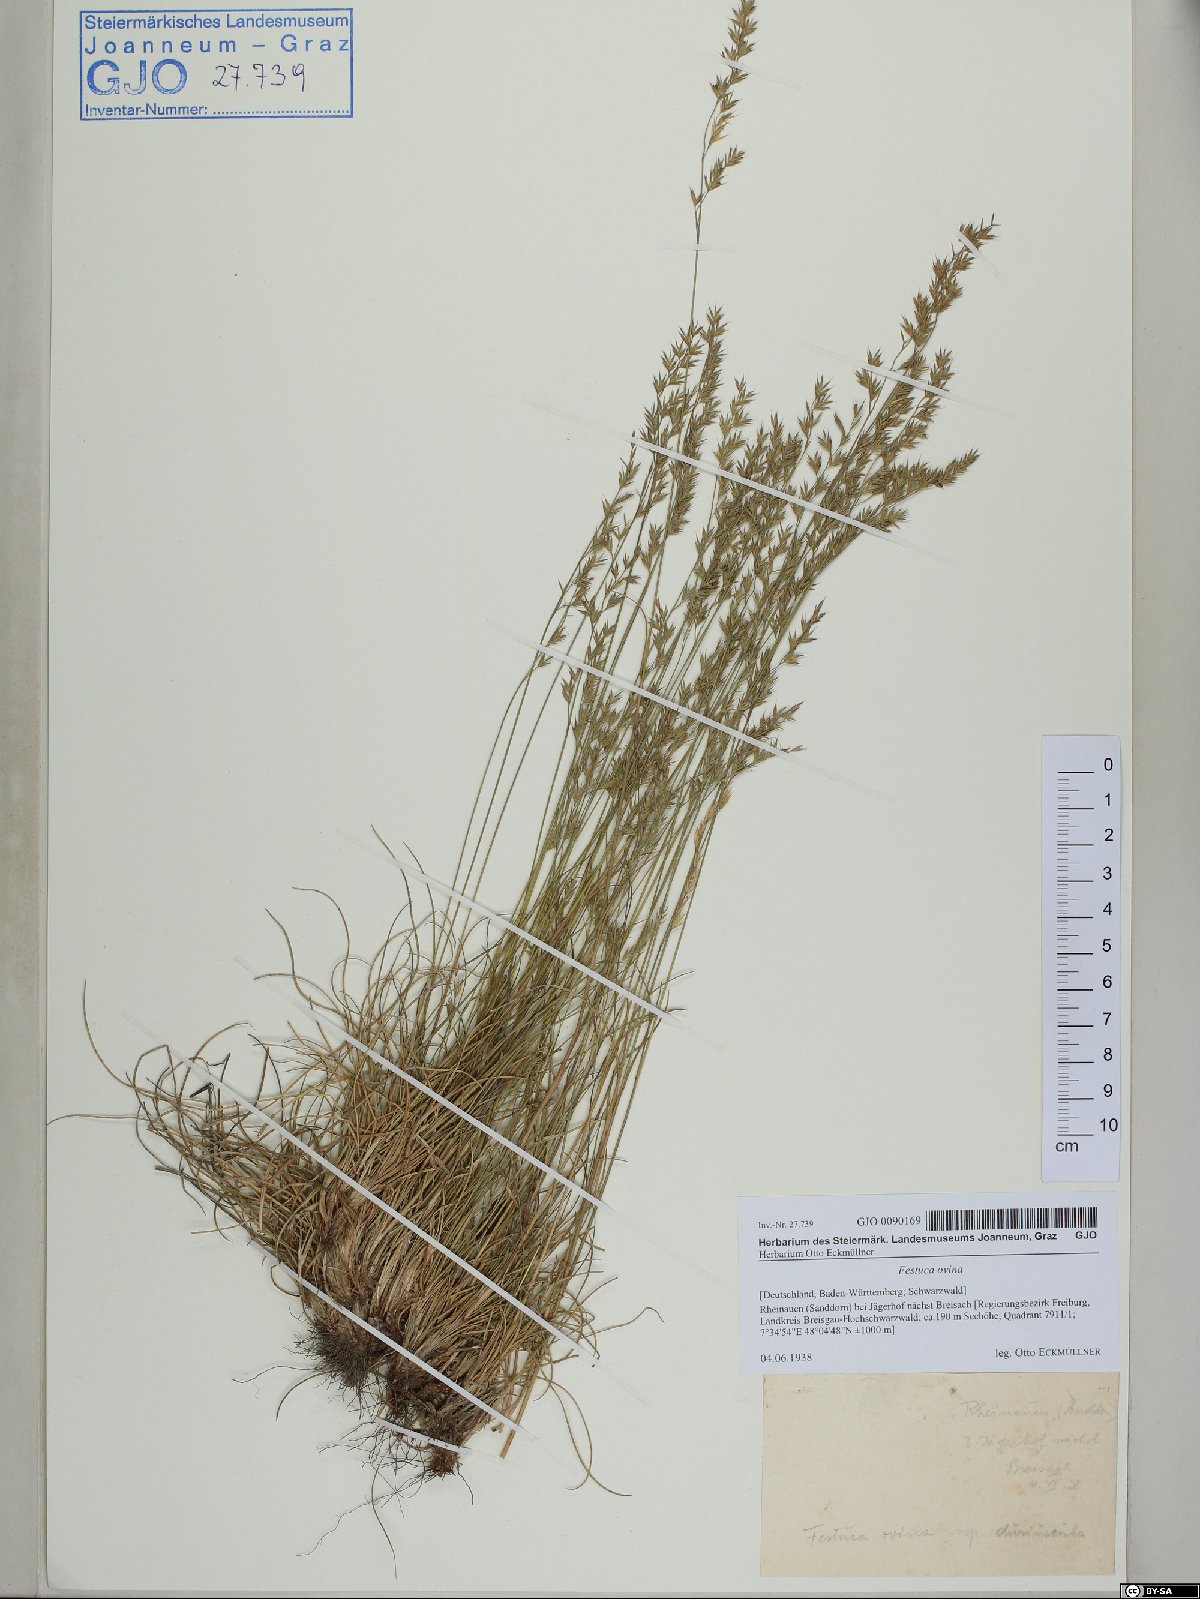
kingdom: Plantae
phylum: Tracheophyta
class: Liliopsida
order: Poales
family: Poaceae
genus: Festuca
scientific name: Festuca ovina
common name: Sheep fescue
